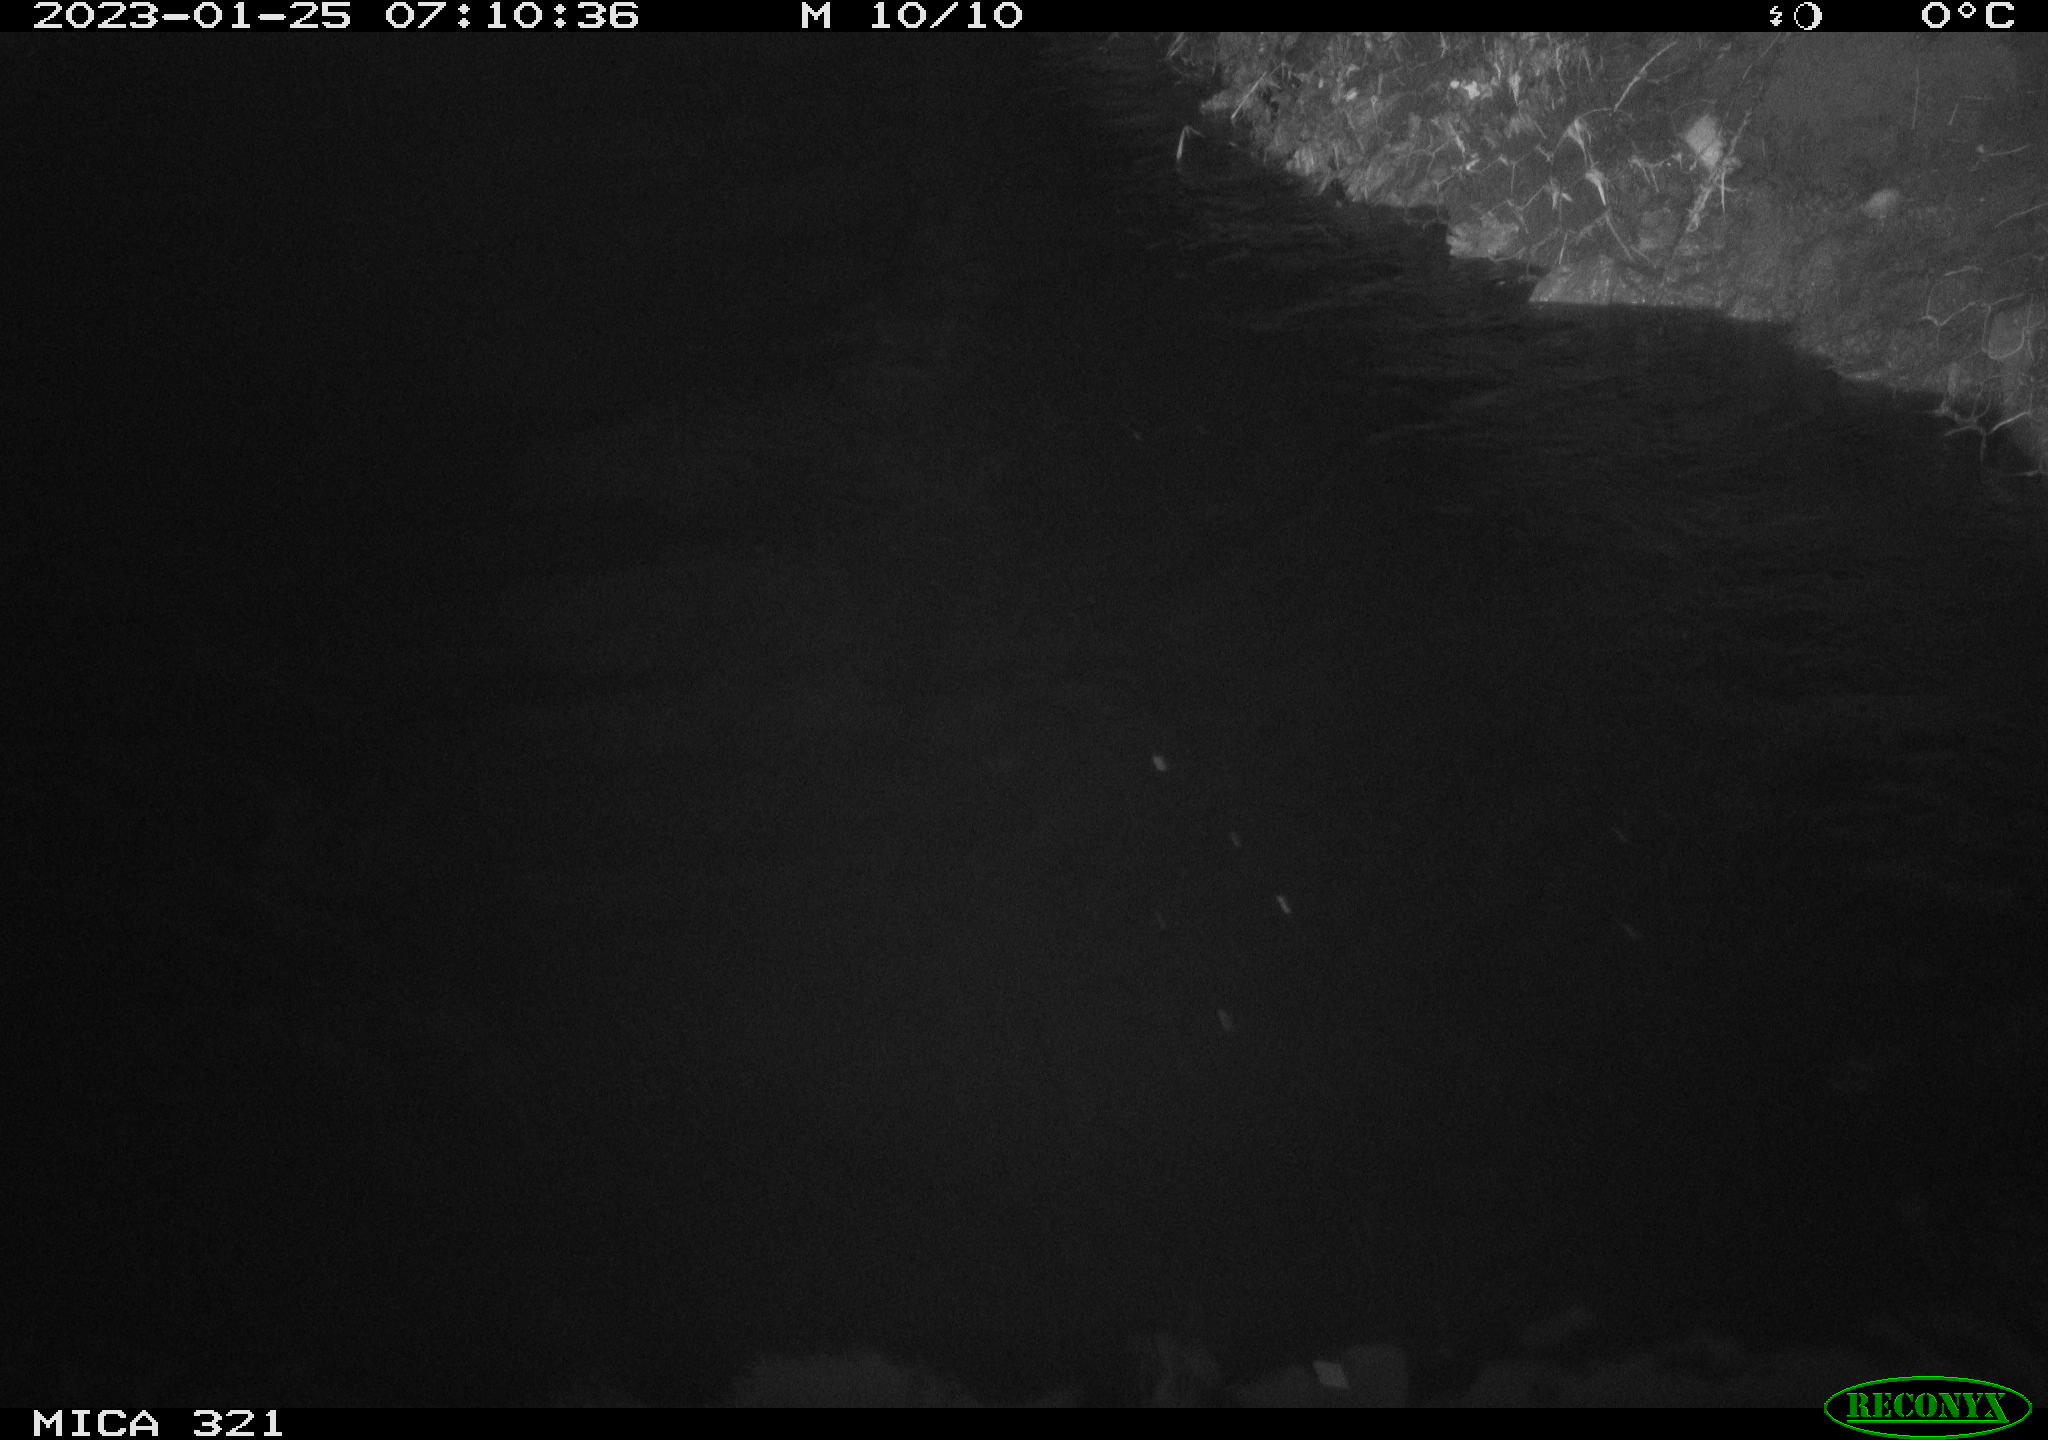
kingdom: Animalia
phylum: Chordata
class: Aves
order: Anseriformes
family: Anatidae
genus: Anas
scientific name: Anas
